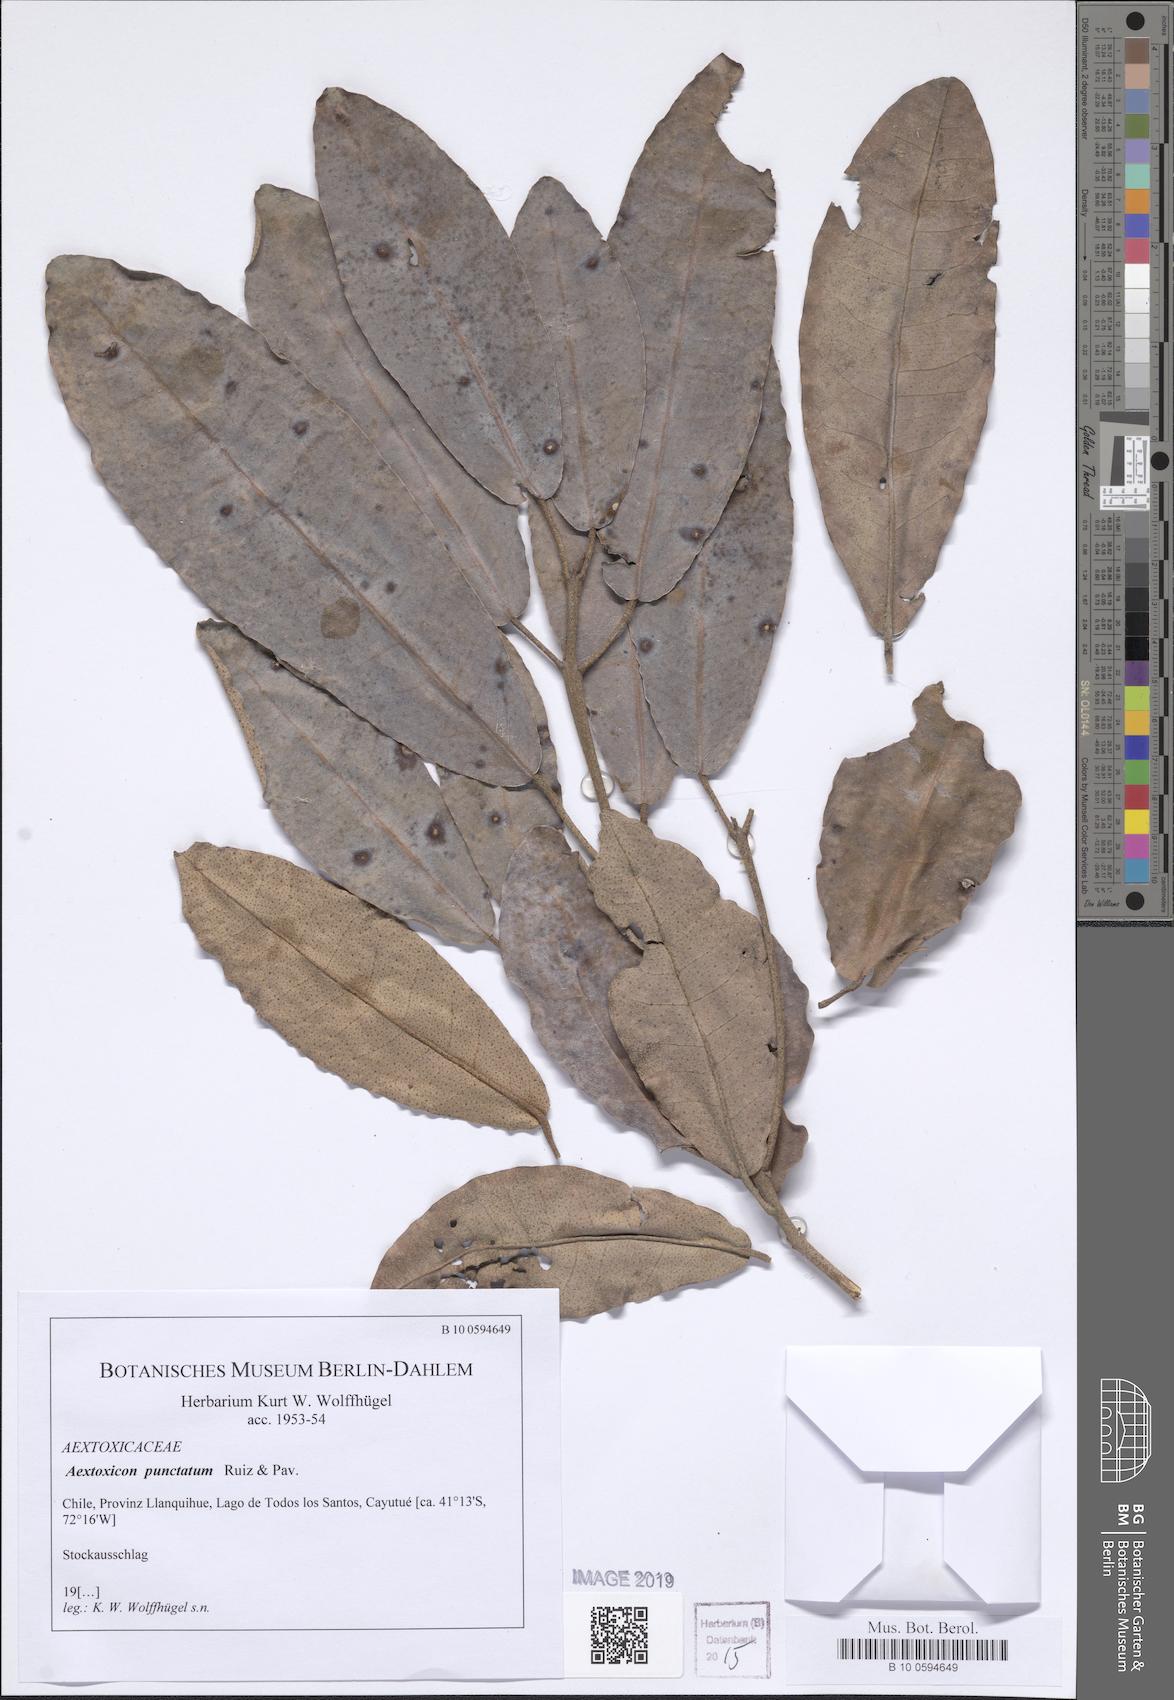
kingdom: Plantae
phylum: Tracheophyta
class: Magnoliopsida
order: Berberidopsidales
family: Aextoxicaceae
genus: Aextoxicon
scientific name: Aextoxicon punctatum
